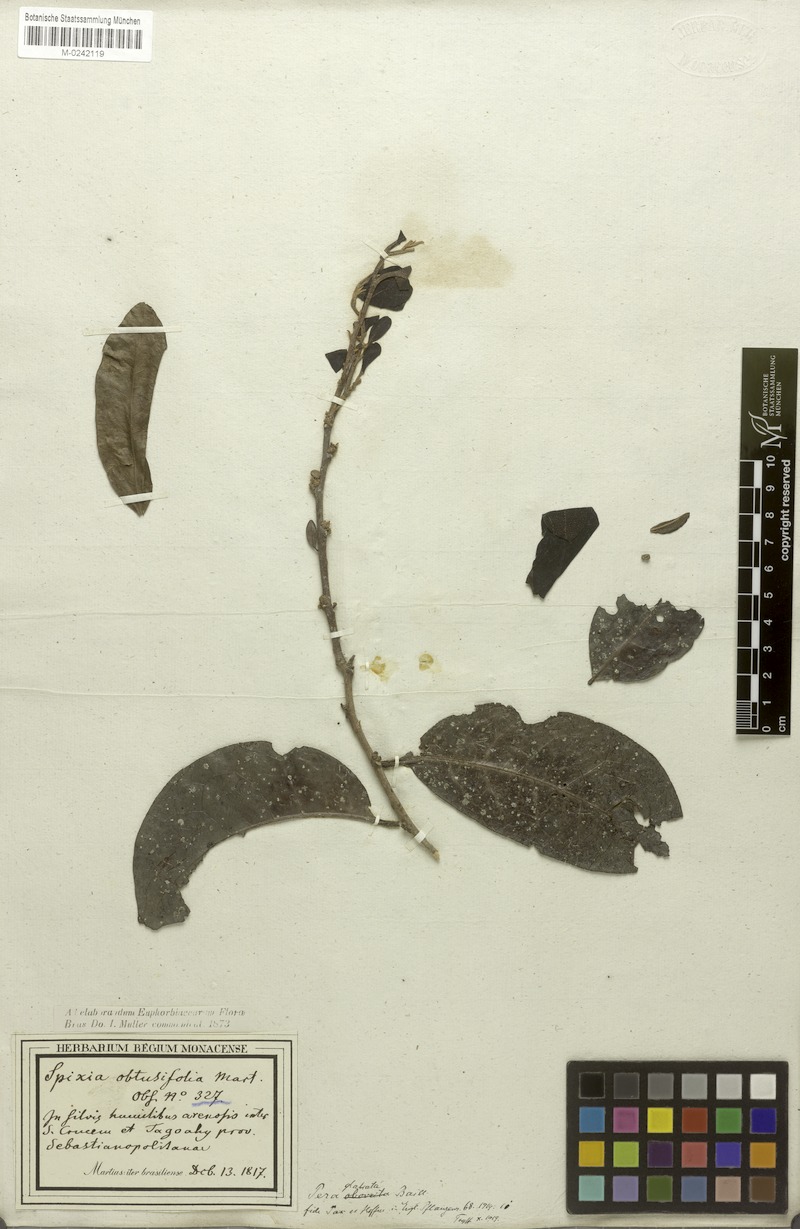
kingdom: Plantae
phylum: Tracheophyta
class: Magnoliopsida
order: Malpighiales
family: Peraceae
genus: Pera
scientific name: Pera glabrata
